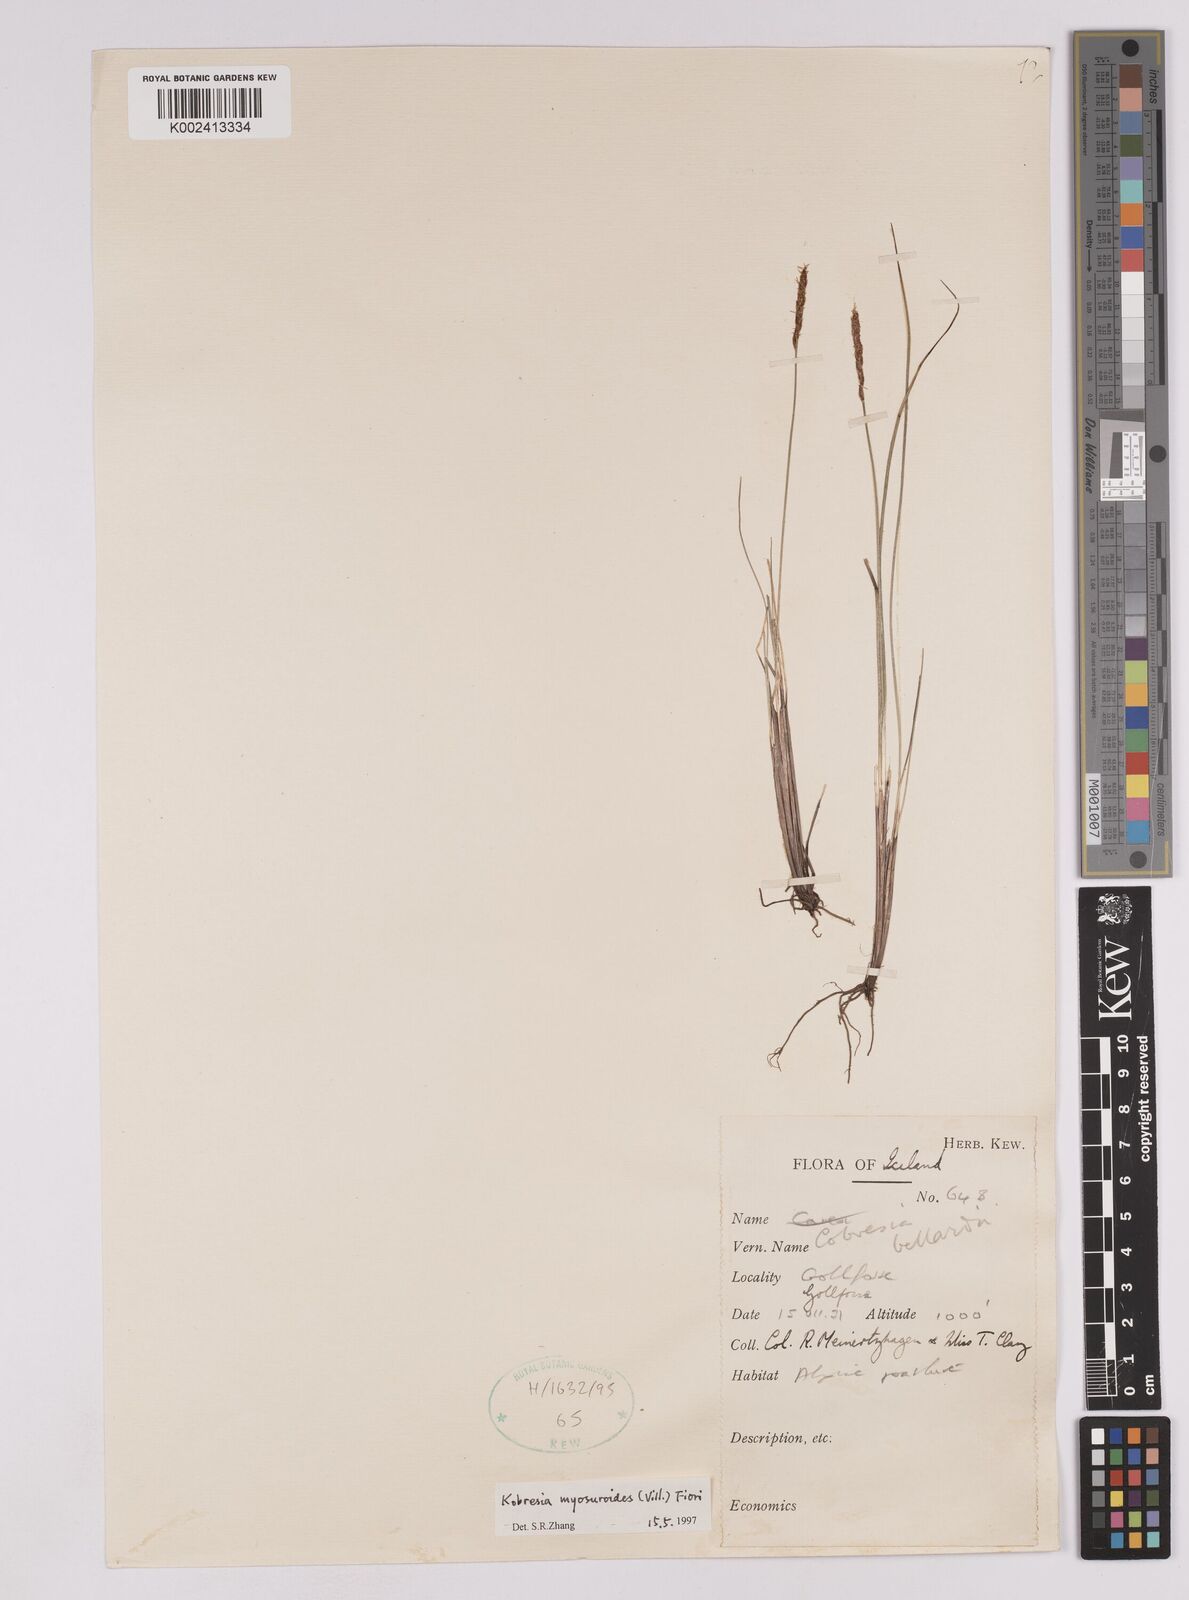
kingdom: Plantae
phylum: Tracheophyta
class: Liliopsida
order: Poales
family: Cyperaceae
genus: Carex
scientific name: Carex myosuroides
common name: Bellard's bog sedge
